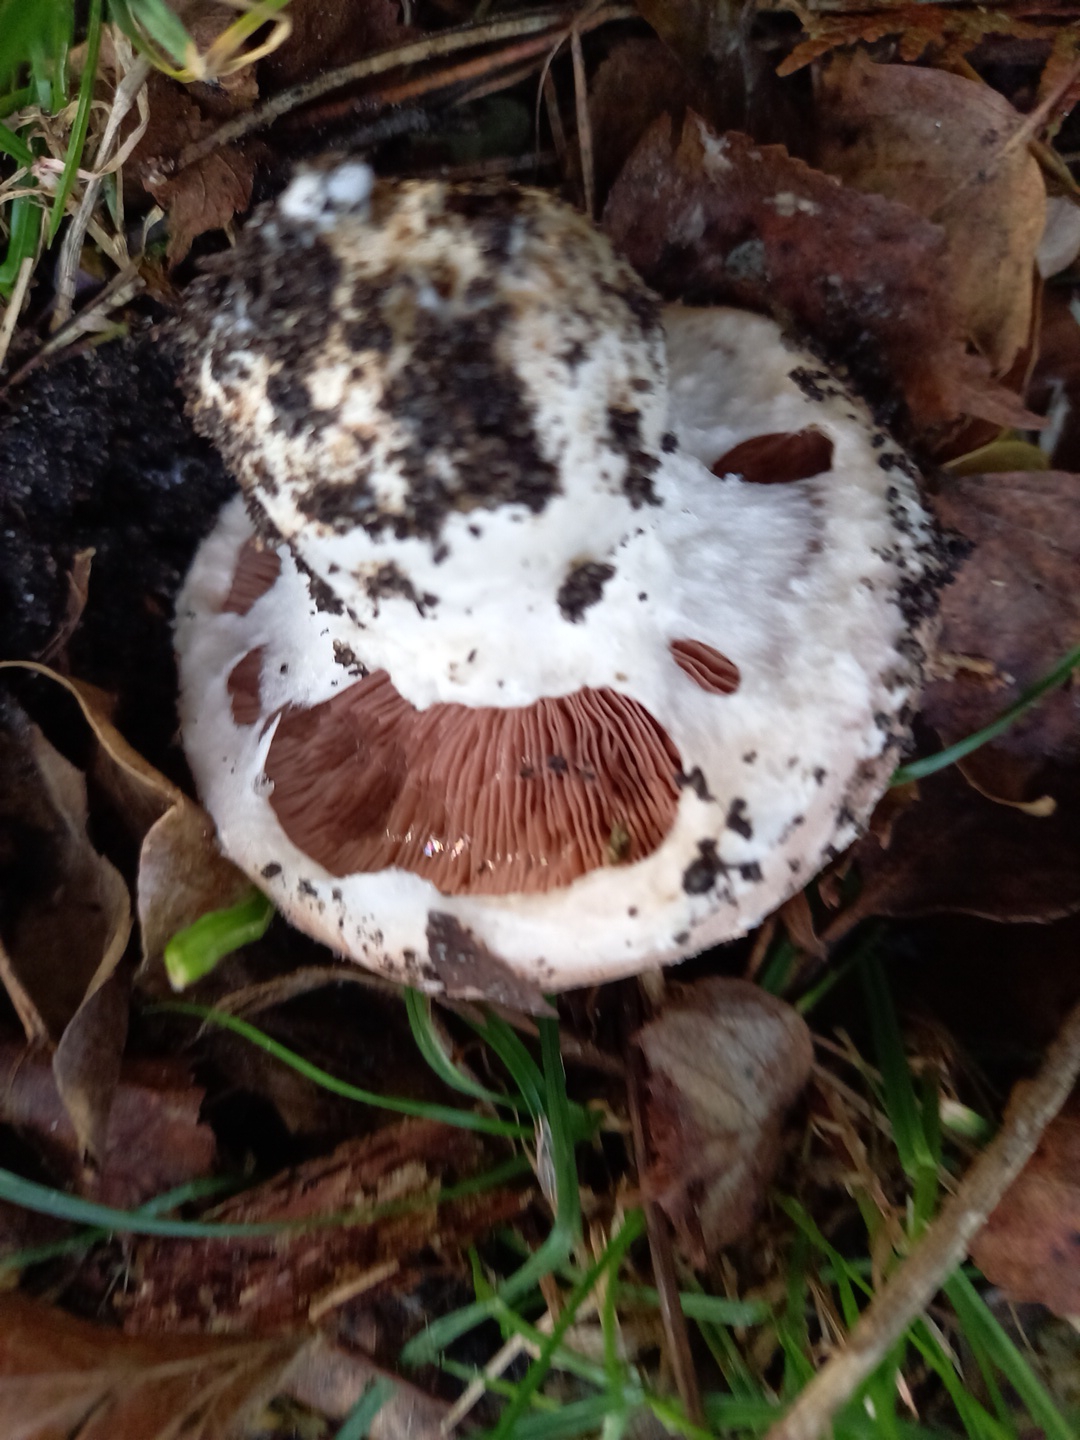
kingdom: Fungi
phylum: Basidiomycota
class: Agaricomycetes
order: Agaricales
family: Agaricaceae
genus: Agaricus
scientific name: Agaricus
